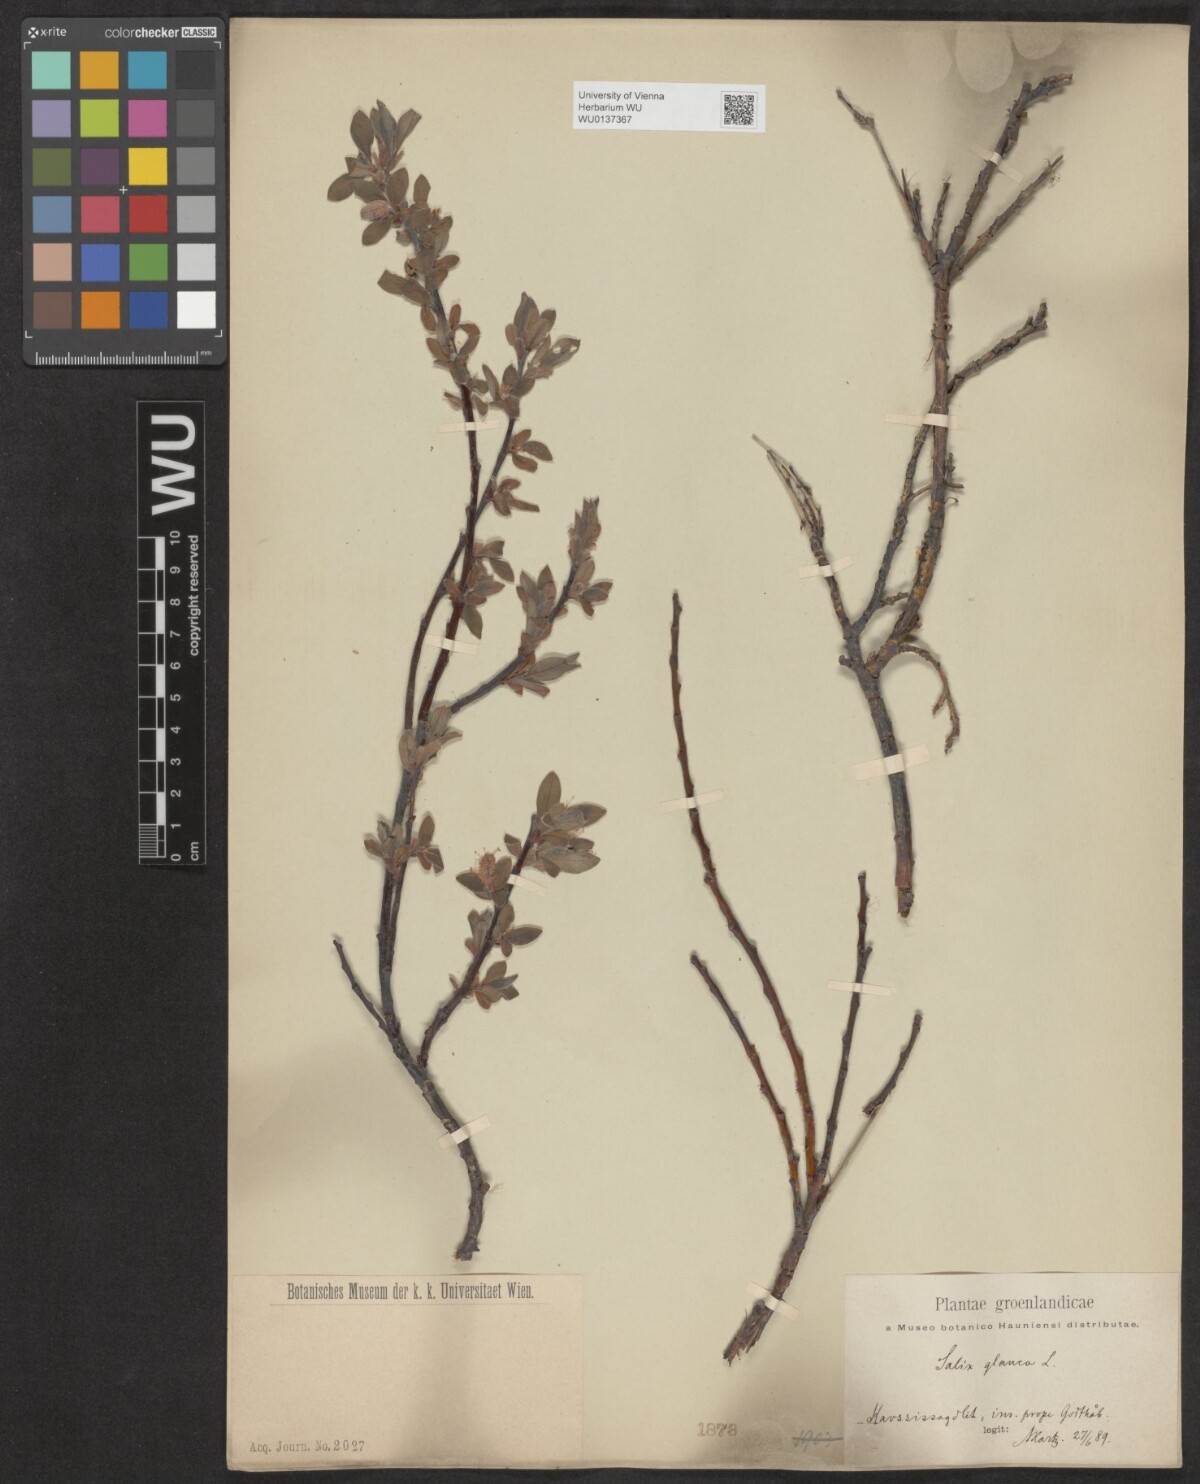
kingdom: Plantae
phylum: Tracheophyta
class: Magnoliopsida
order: Malpighiales
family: Salicaceae
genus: Salix
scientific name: Salix glauca
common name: Glaucous willow
